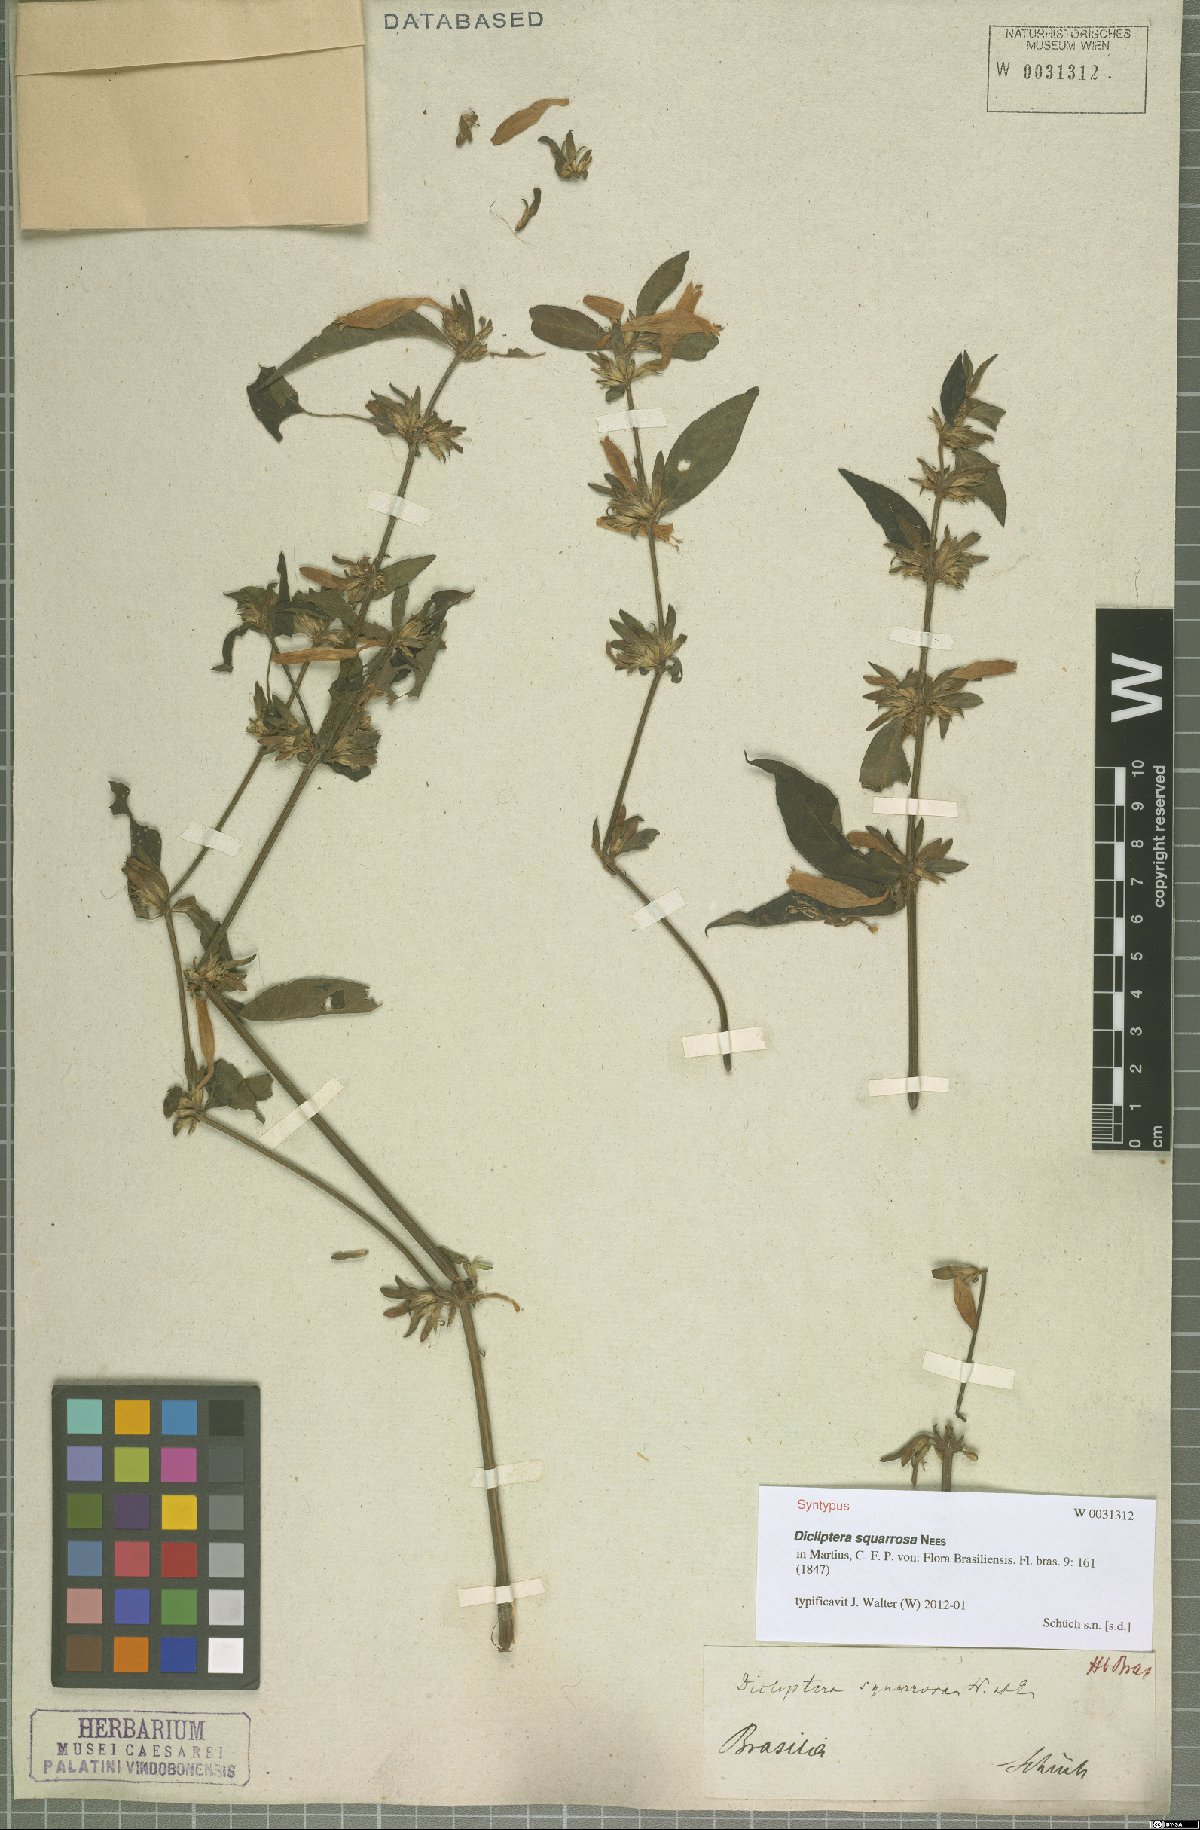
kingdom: Plantae
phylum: Tracheophyta
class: Magnoliopsida
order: Lamiales
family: Acanthaceae
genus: Dicliptera
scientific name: Dicliptera squarrosa
